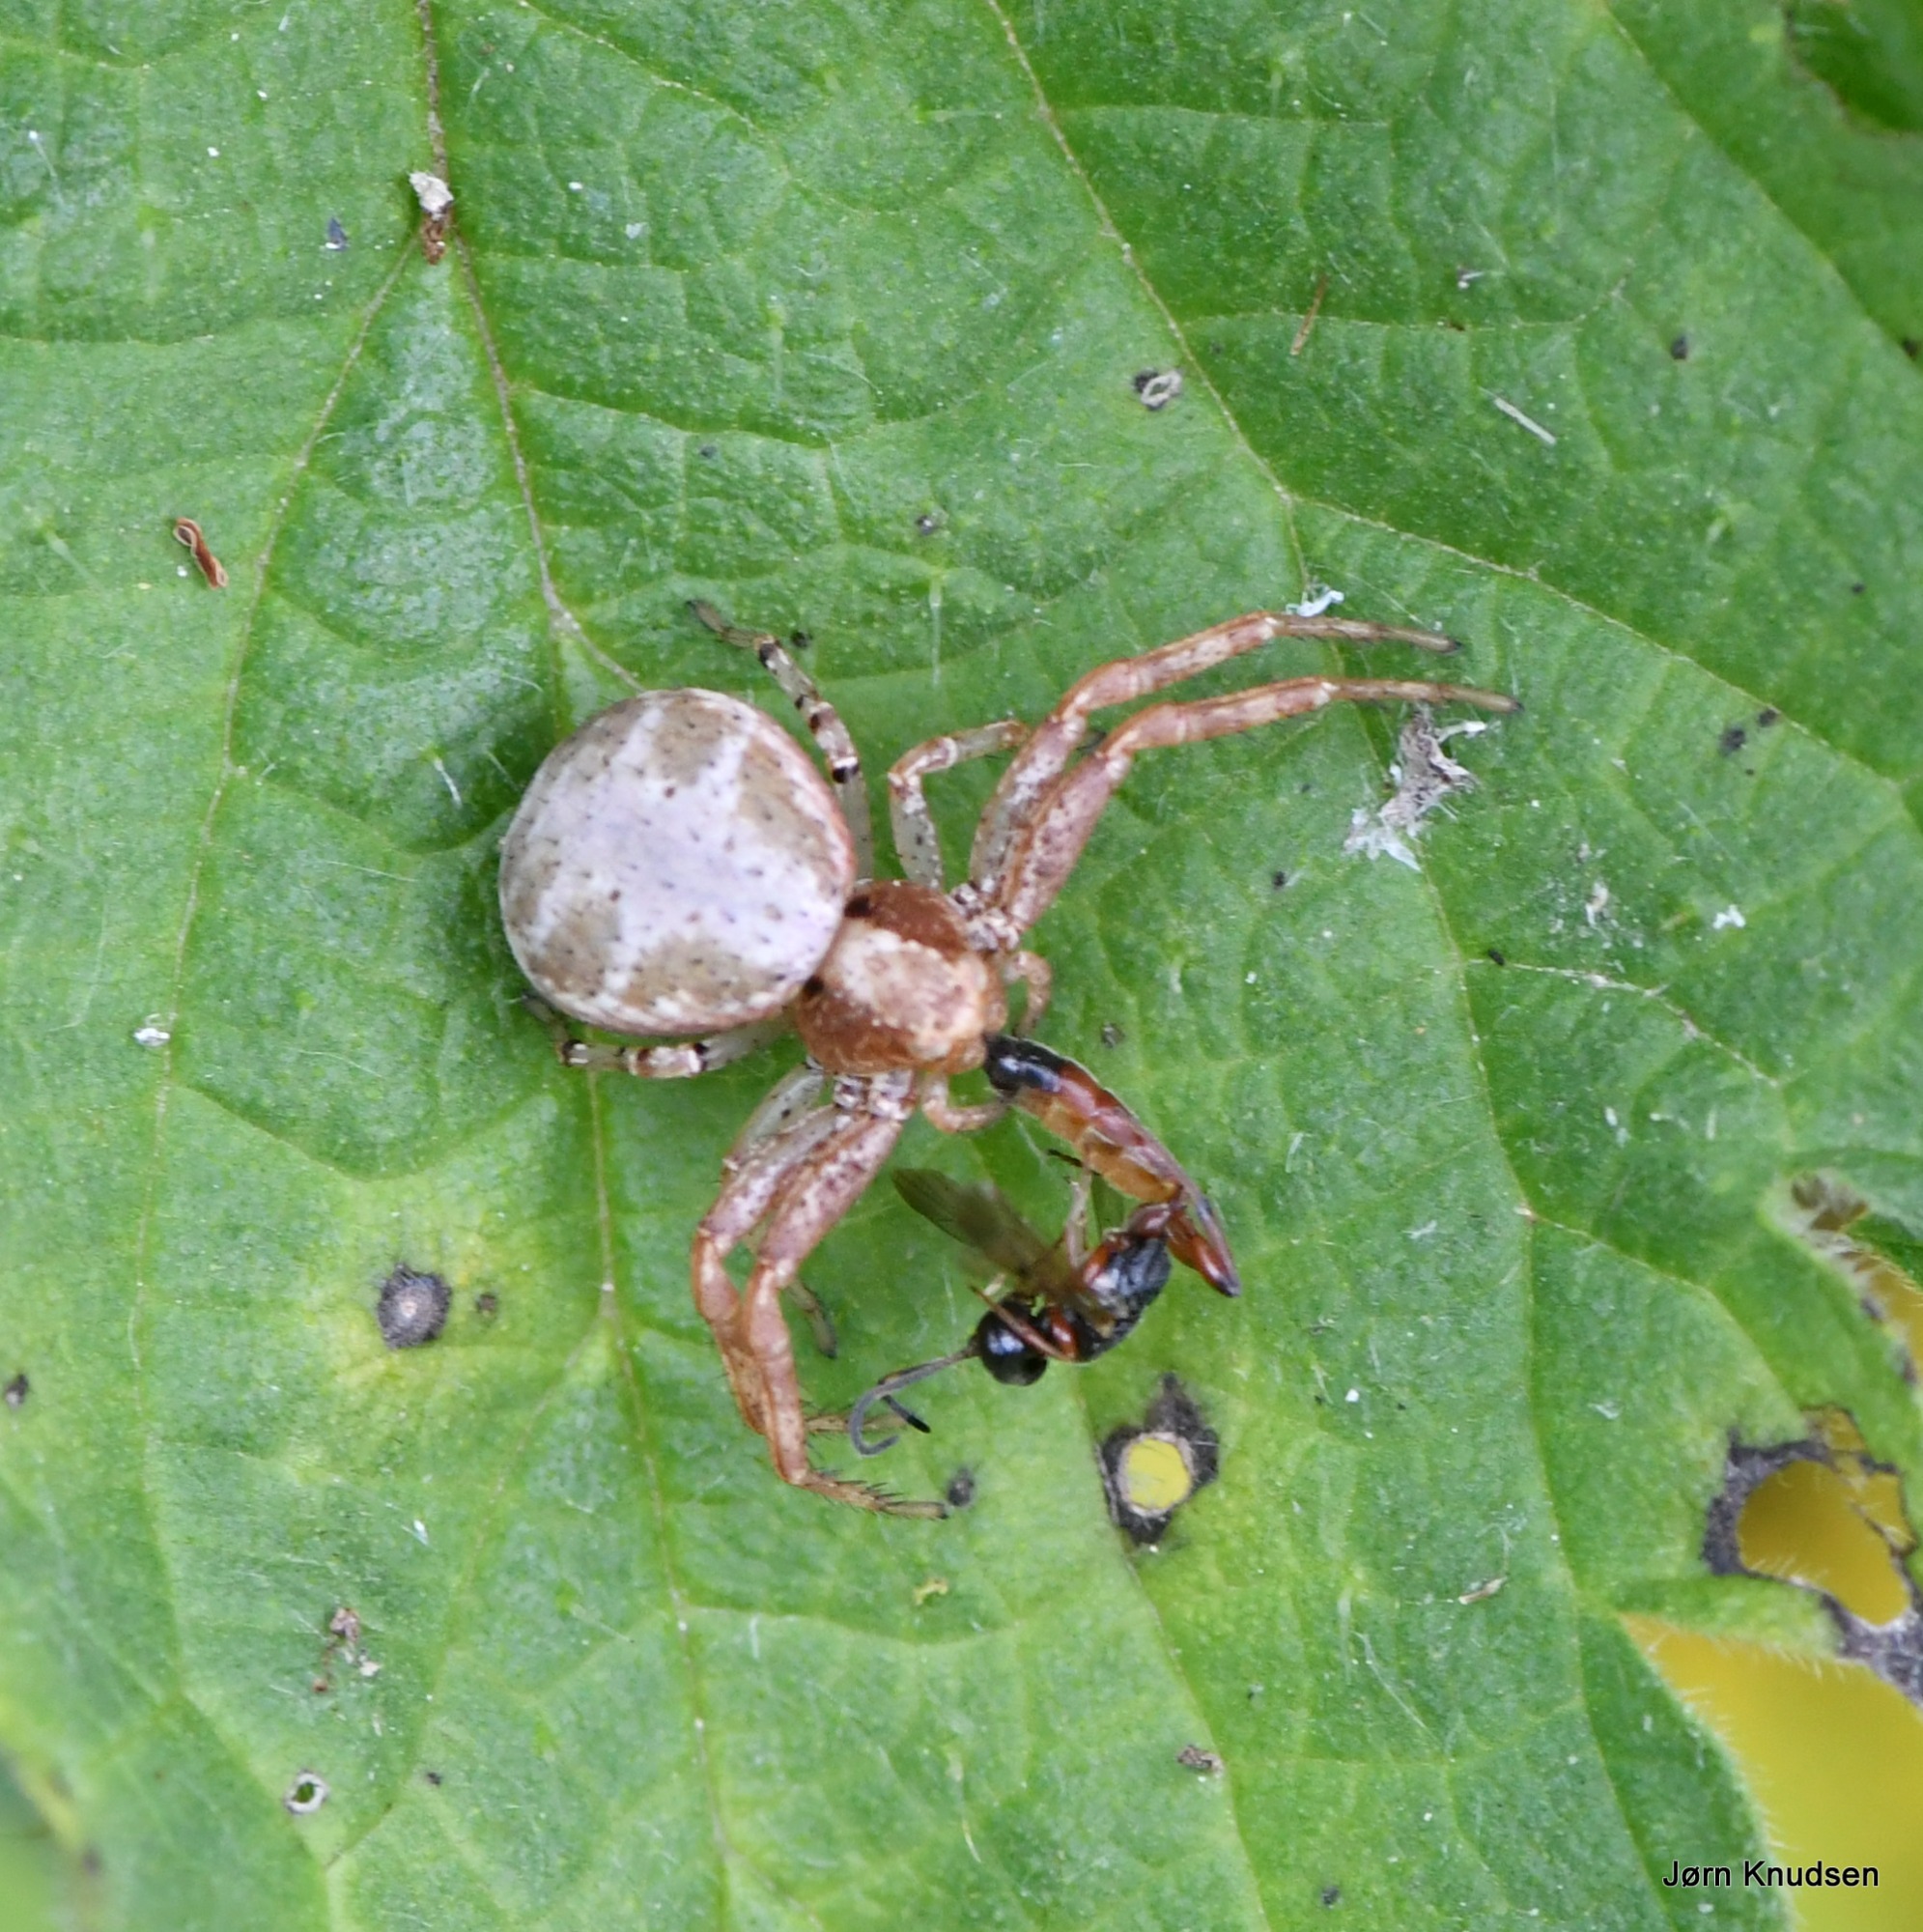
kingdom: Animalia
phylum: Arthropoda
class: Arachnida
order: Araneae
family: Thomisidae
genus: Xysticus
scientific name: Xysticus lanio
